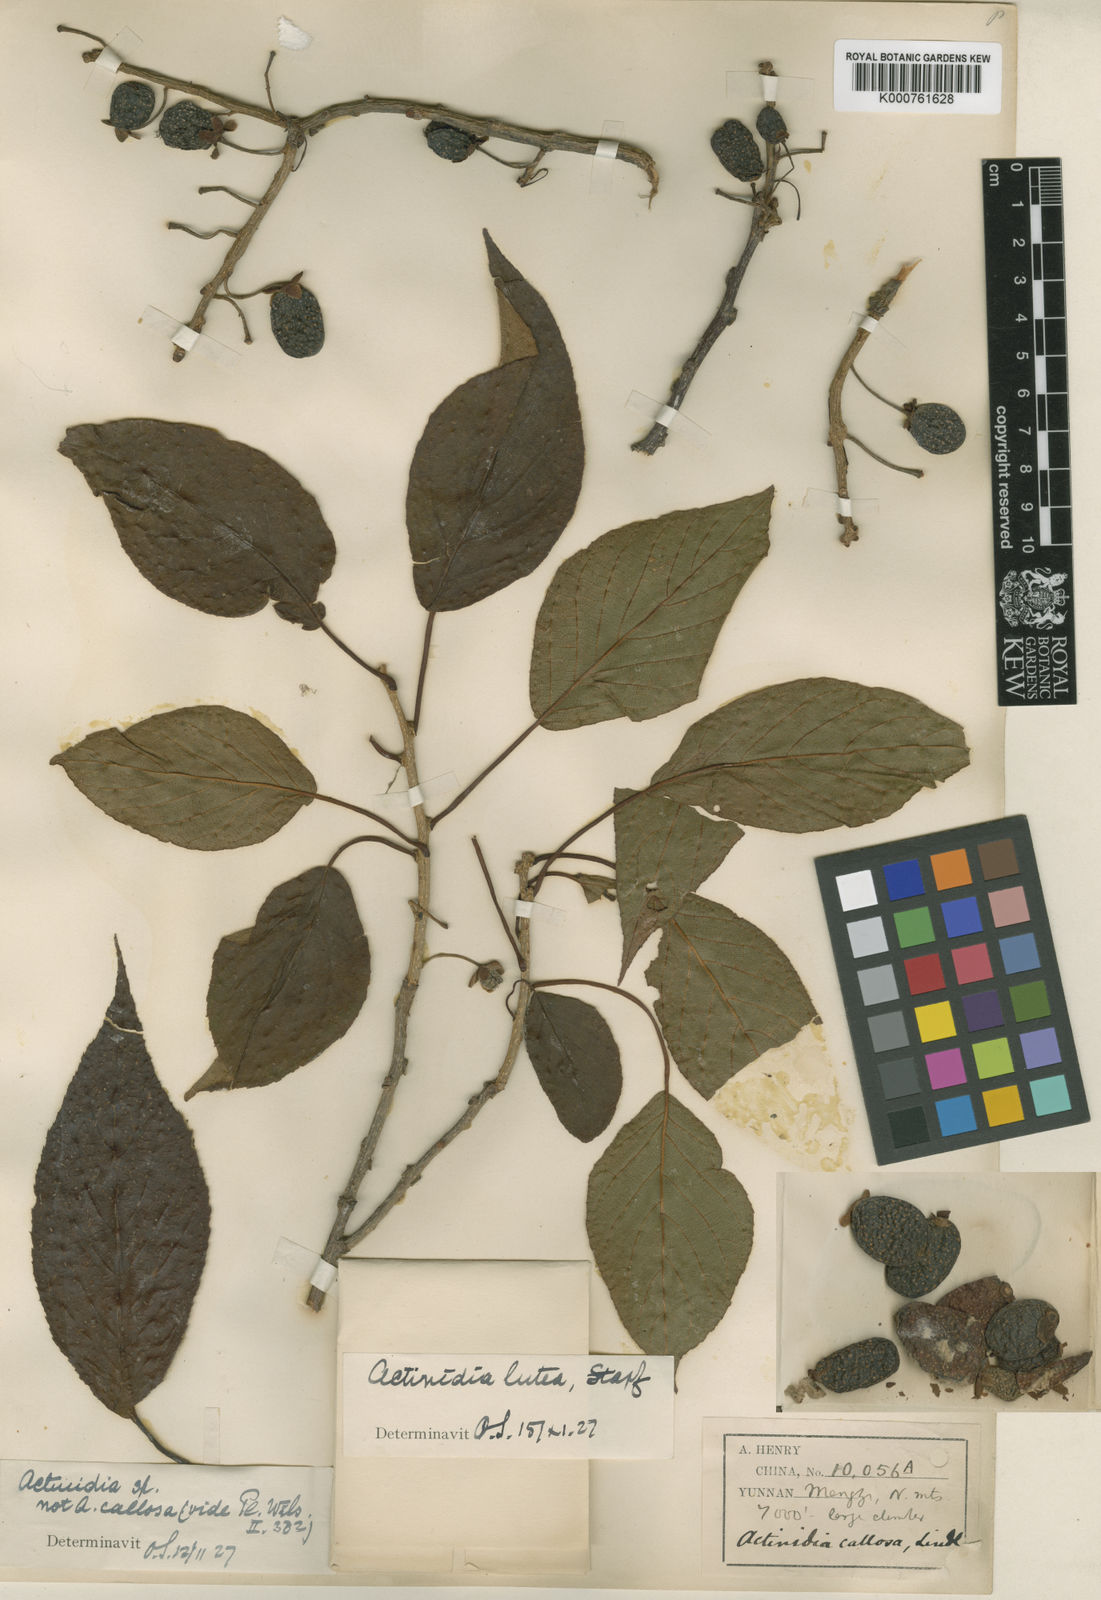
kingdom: Plantae
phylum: Tracheophyta
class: Magnoliopsida
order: Ericales
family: Actinidiaceae
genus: Actinidia
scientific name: Actinidia lutea
